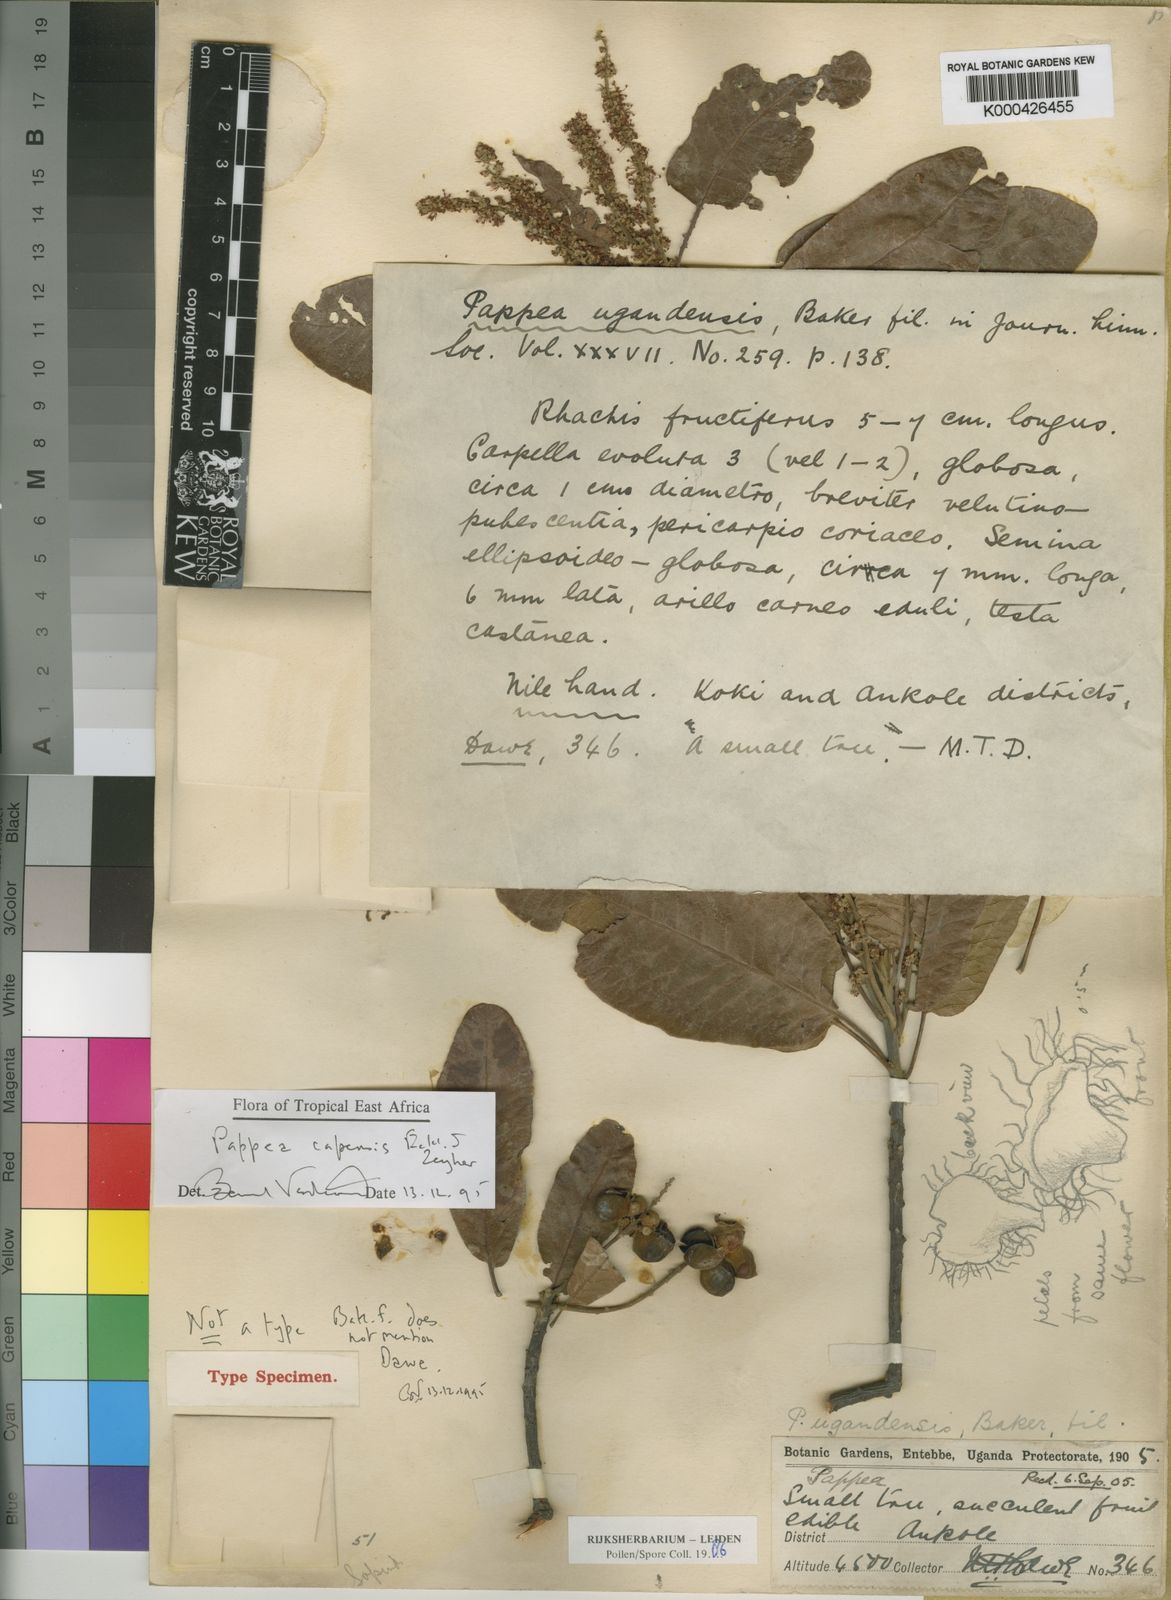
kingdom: Plantae
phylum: Tracheophyta
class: Magnoliopsida
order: Sapindales
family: Sapindaceae
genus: Pappea
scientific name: Pappea capensis
